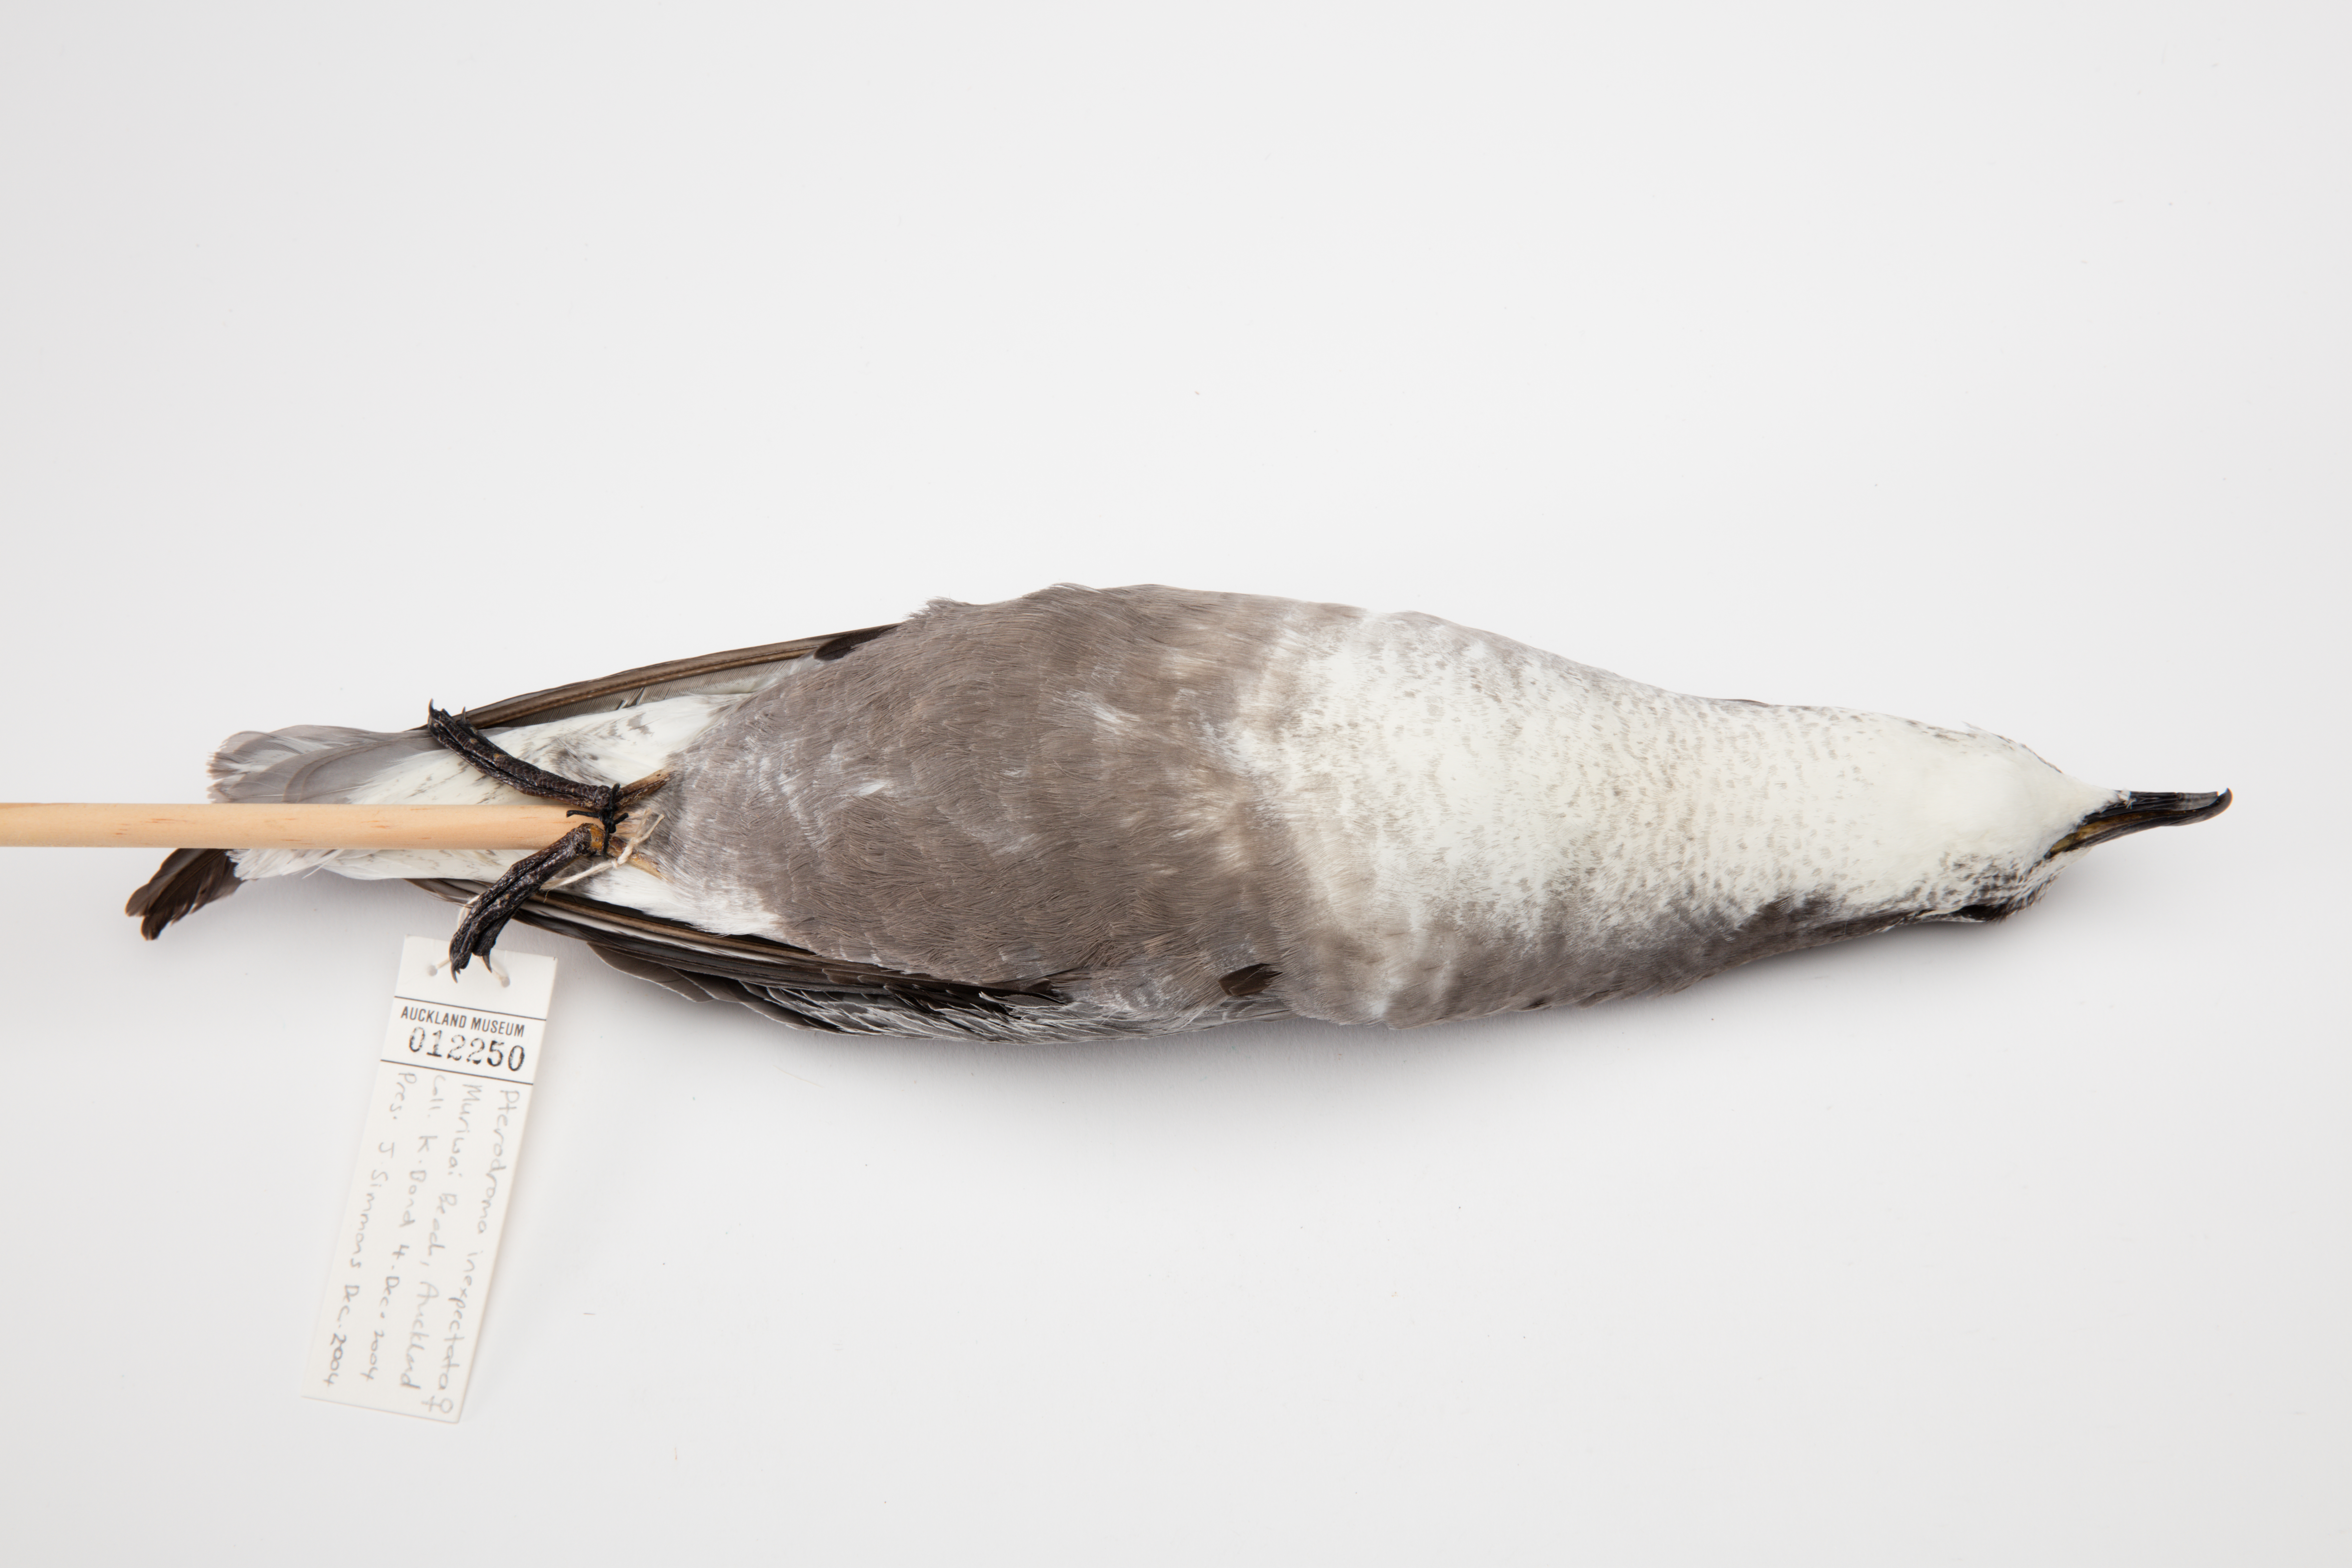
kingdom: Animalia
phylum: Chordata
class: Aves
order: Procellariiformes
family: Procellariidae
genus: Pterodroma
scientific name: Pterodroma inexpectata
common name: Mottled petrel
